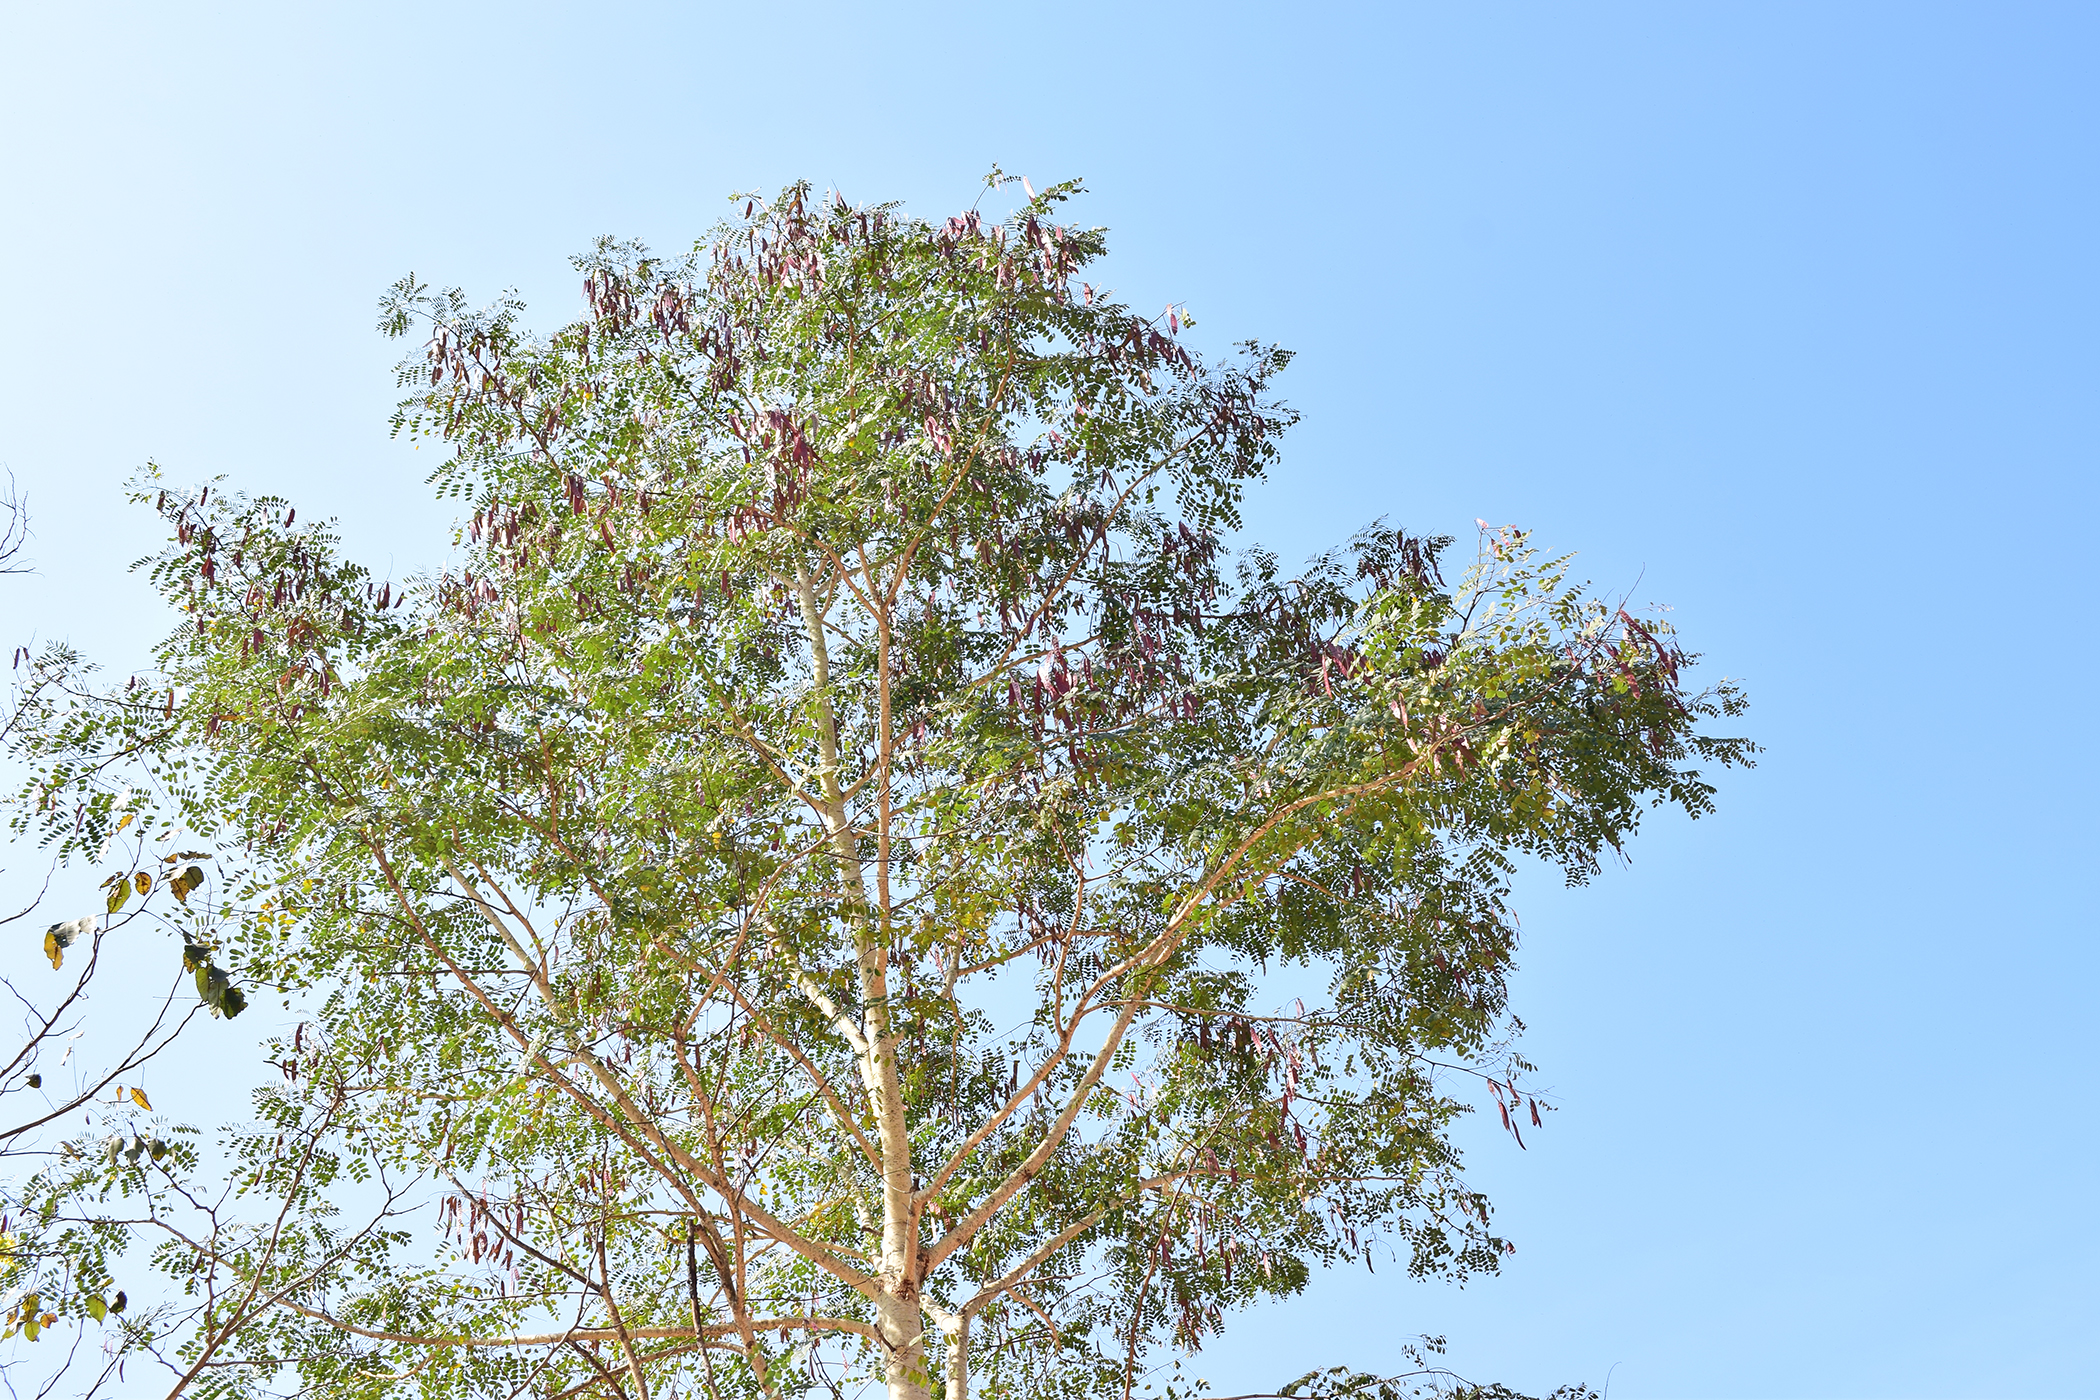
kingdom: Plantae
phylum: Tracheophyta
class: Magnoliopsida
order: Fabales
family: Fabaceae
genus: Albizia
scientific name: Albizia procera
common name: Tall albizia
